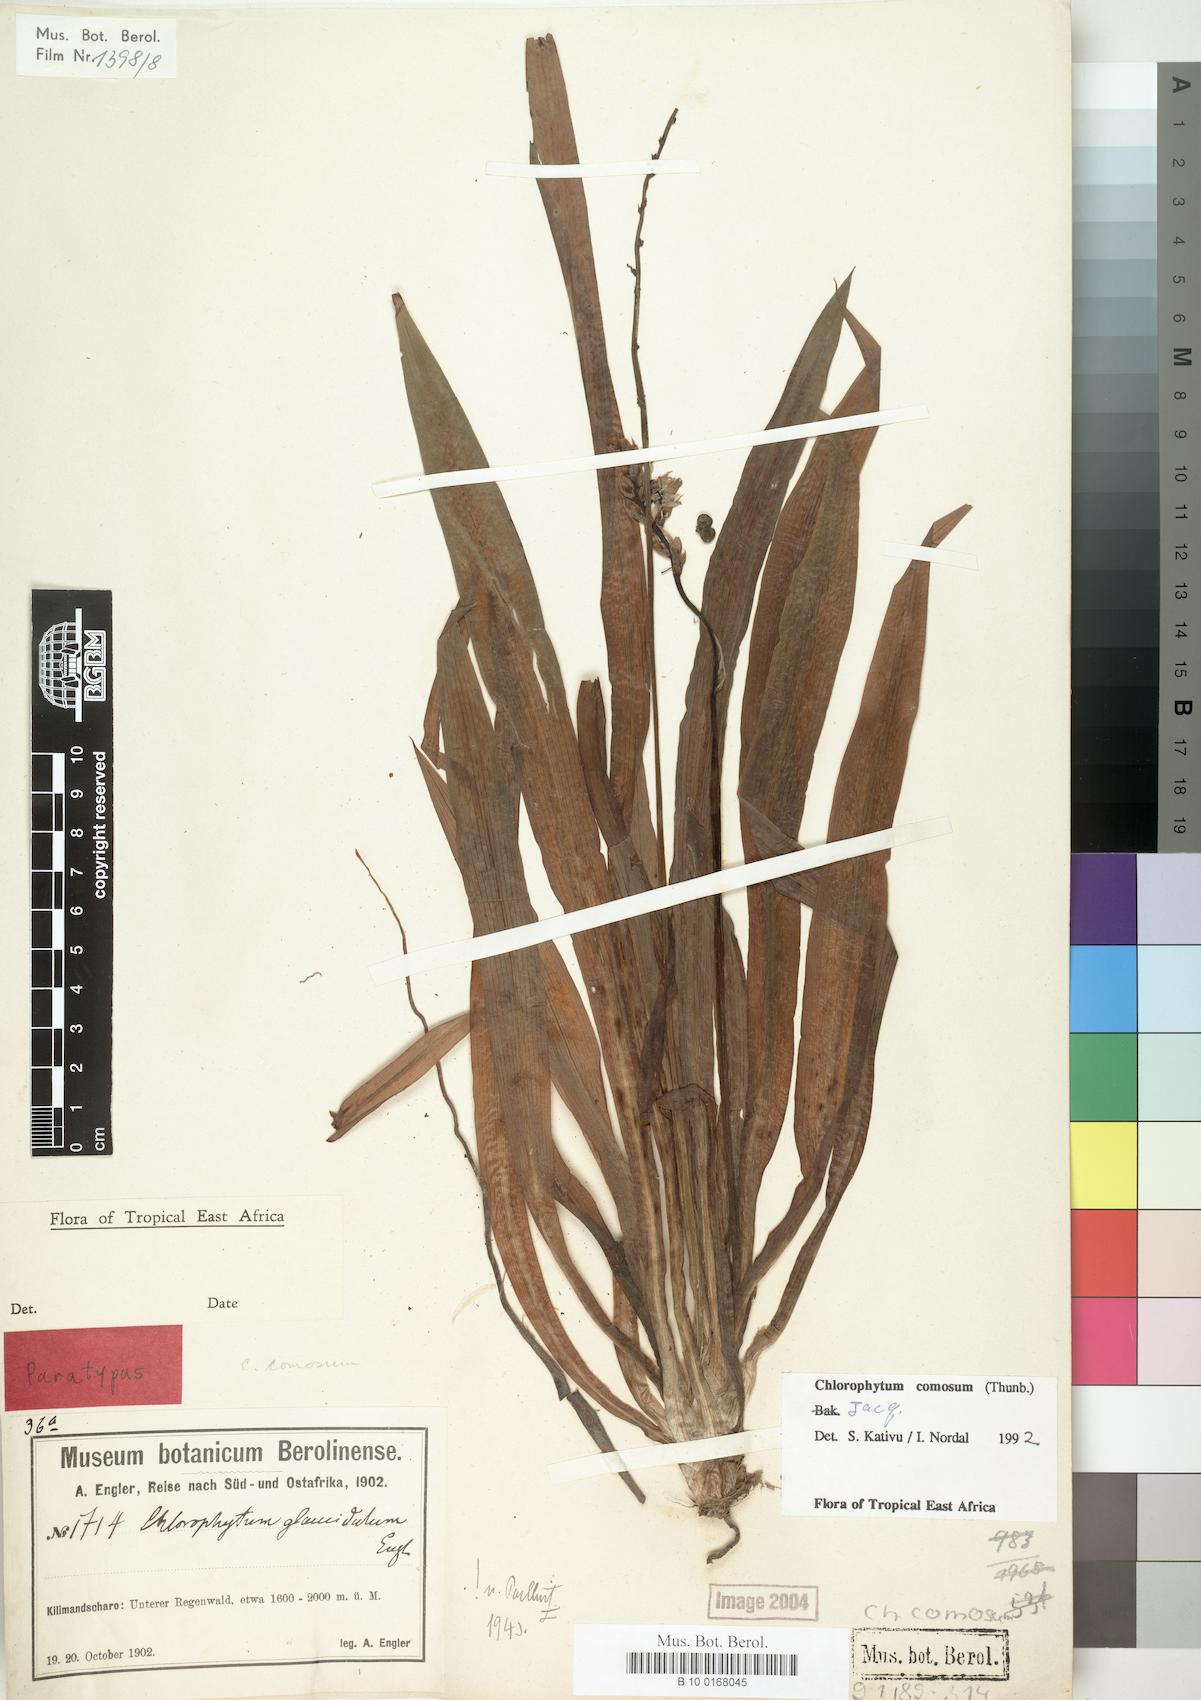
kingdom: Plantae
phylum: Tracheophyta
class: Liliopsida
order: Asparagales
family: Asparagaceae
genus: Chlorophytum
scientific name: Chlorophytum comosum
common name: Spider plant
